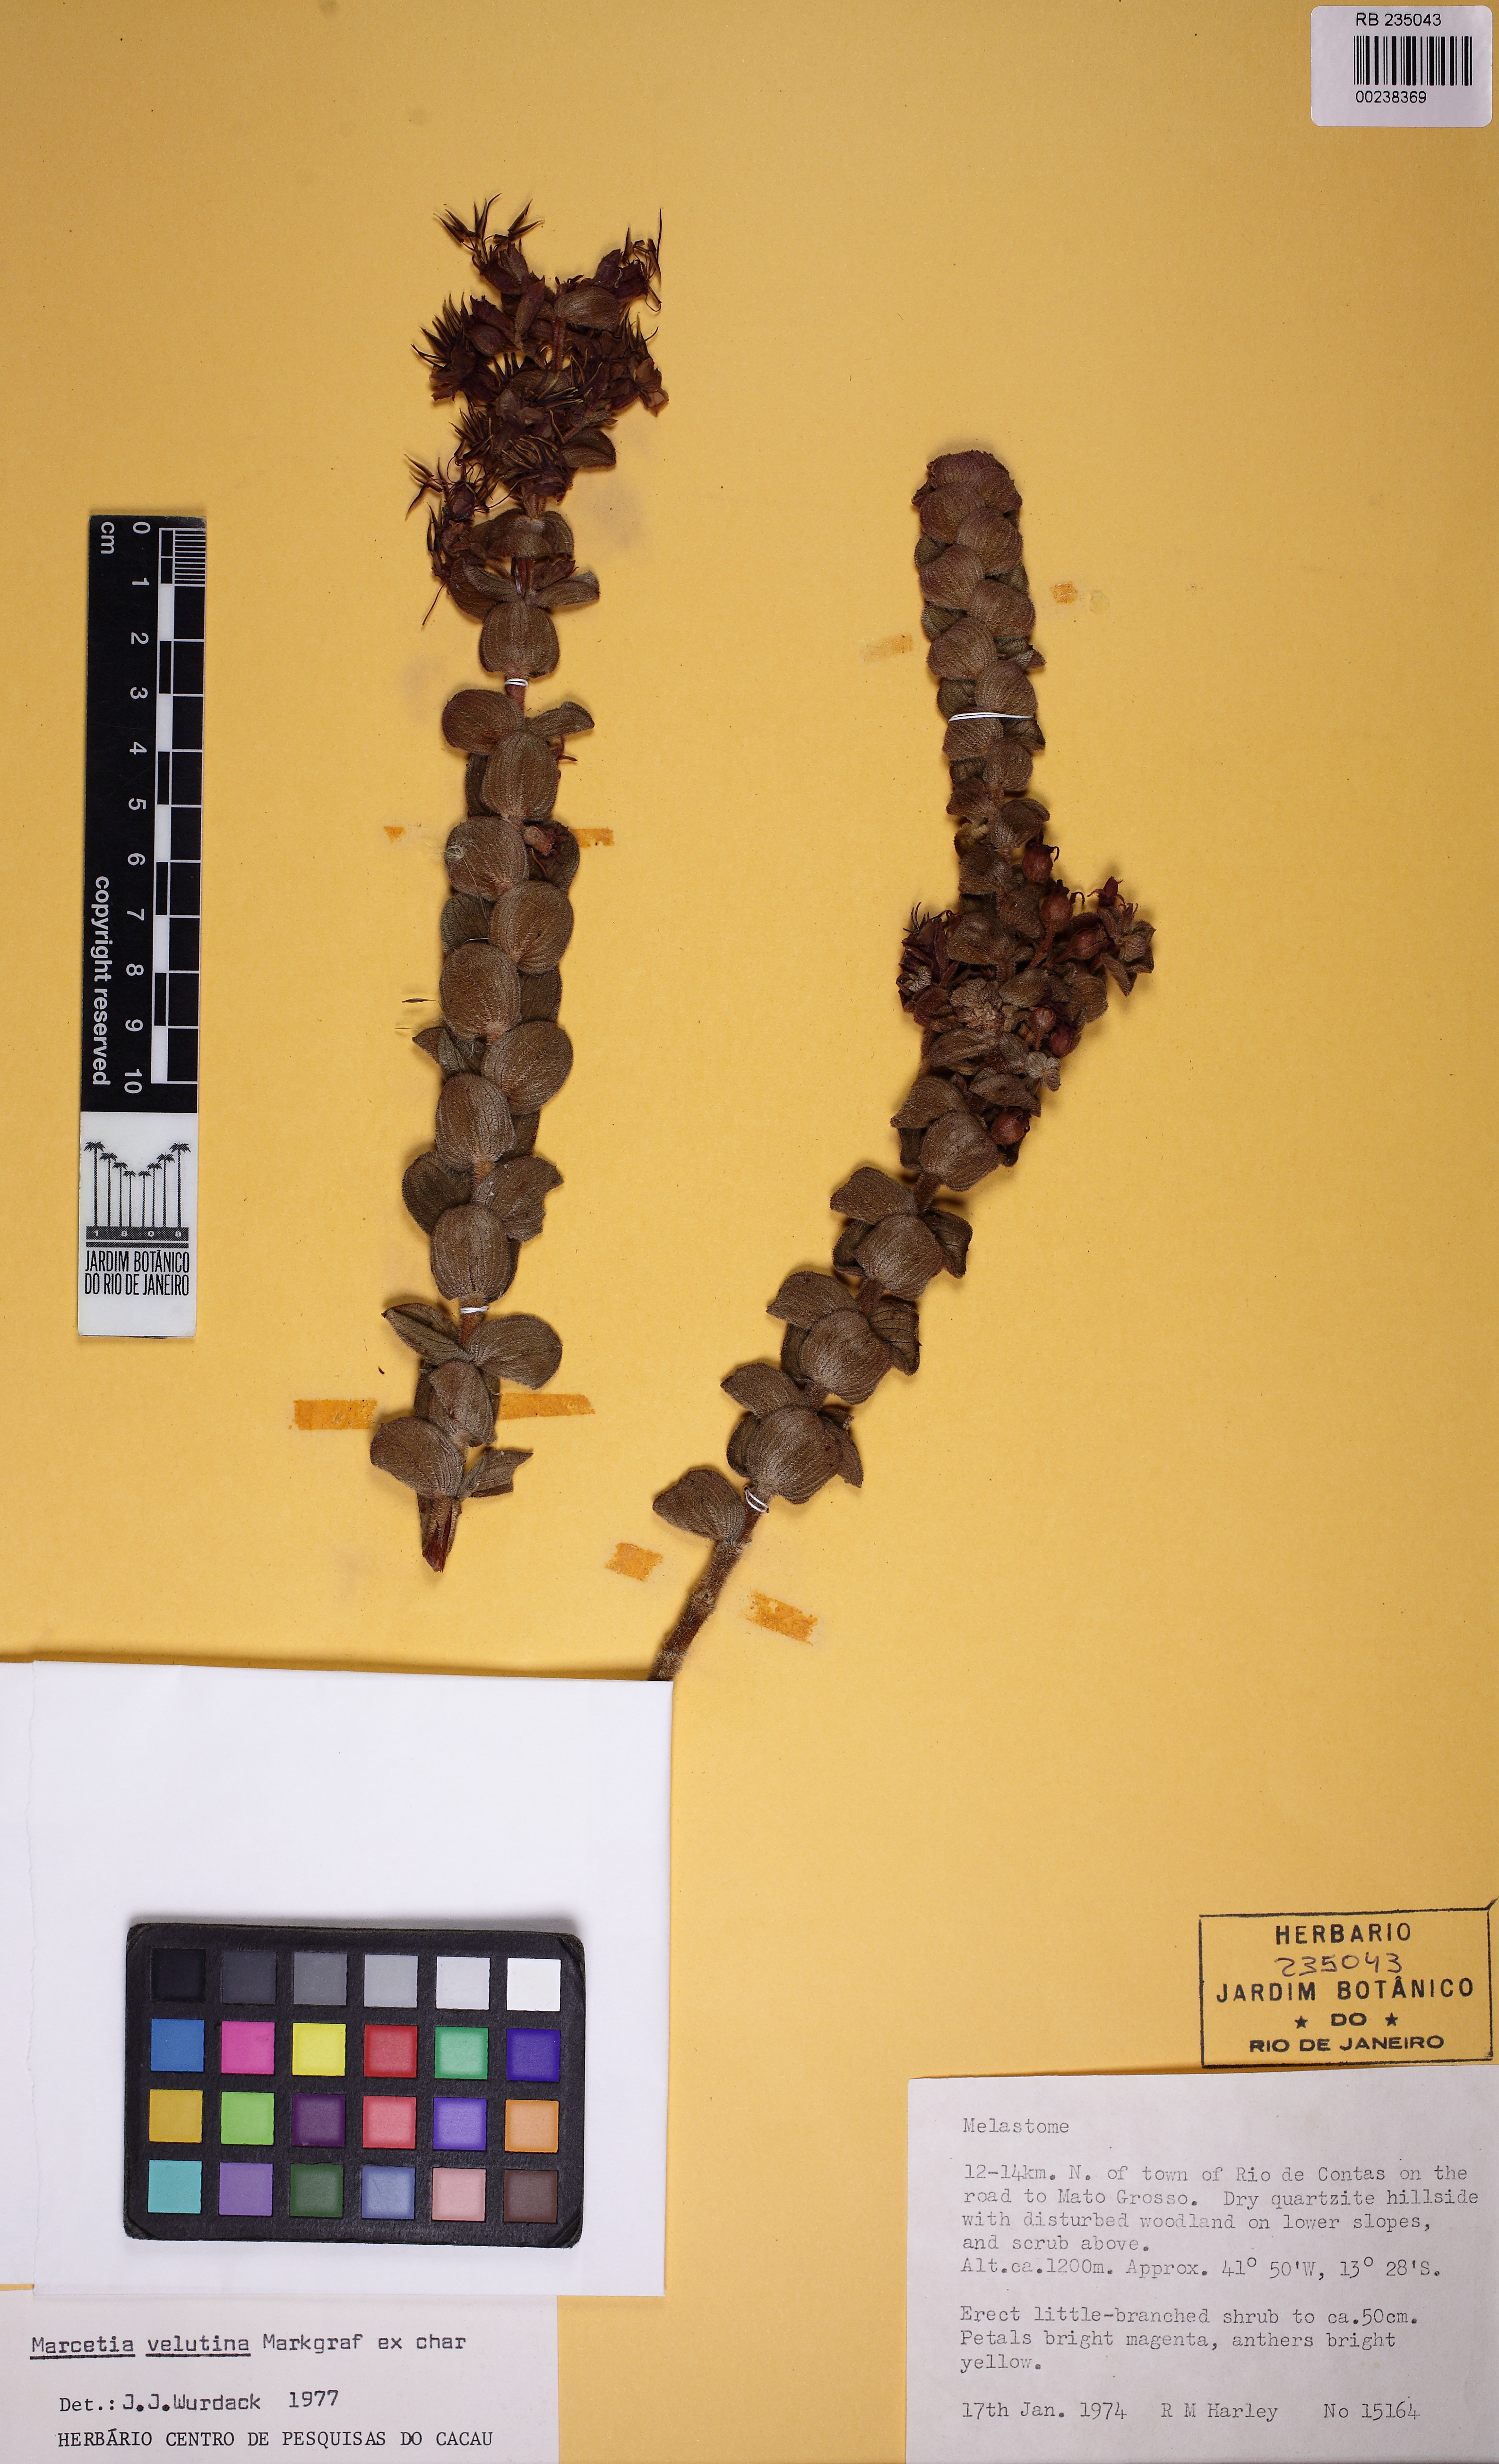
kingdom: Plantae
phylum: Tracheophyta
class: Magnoliopsida
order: Myrtales
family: Melastomataceae
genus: Marcetia
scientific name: Marcetia velutina
